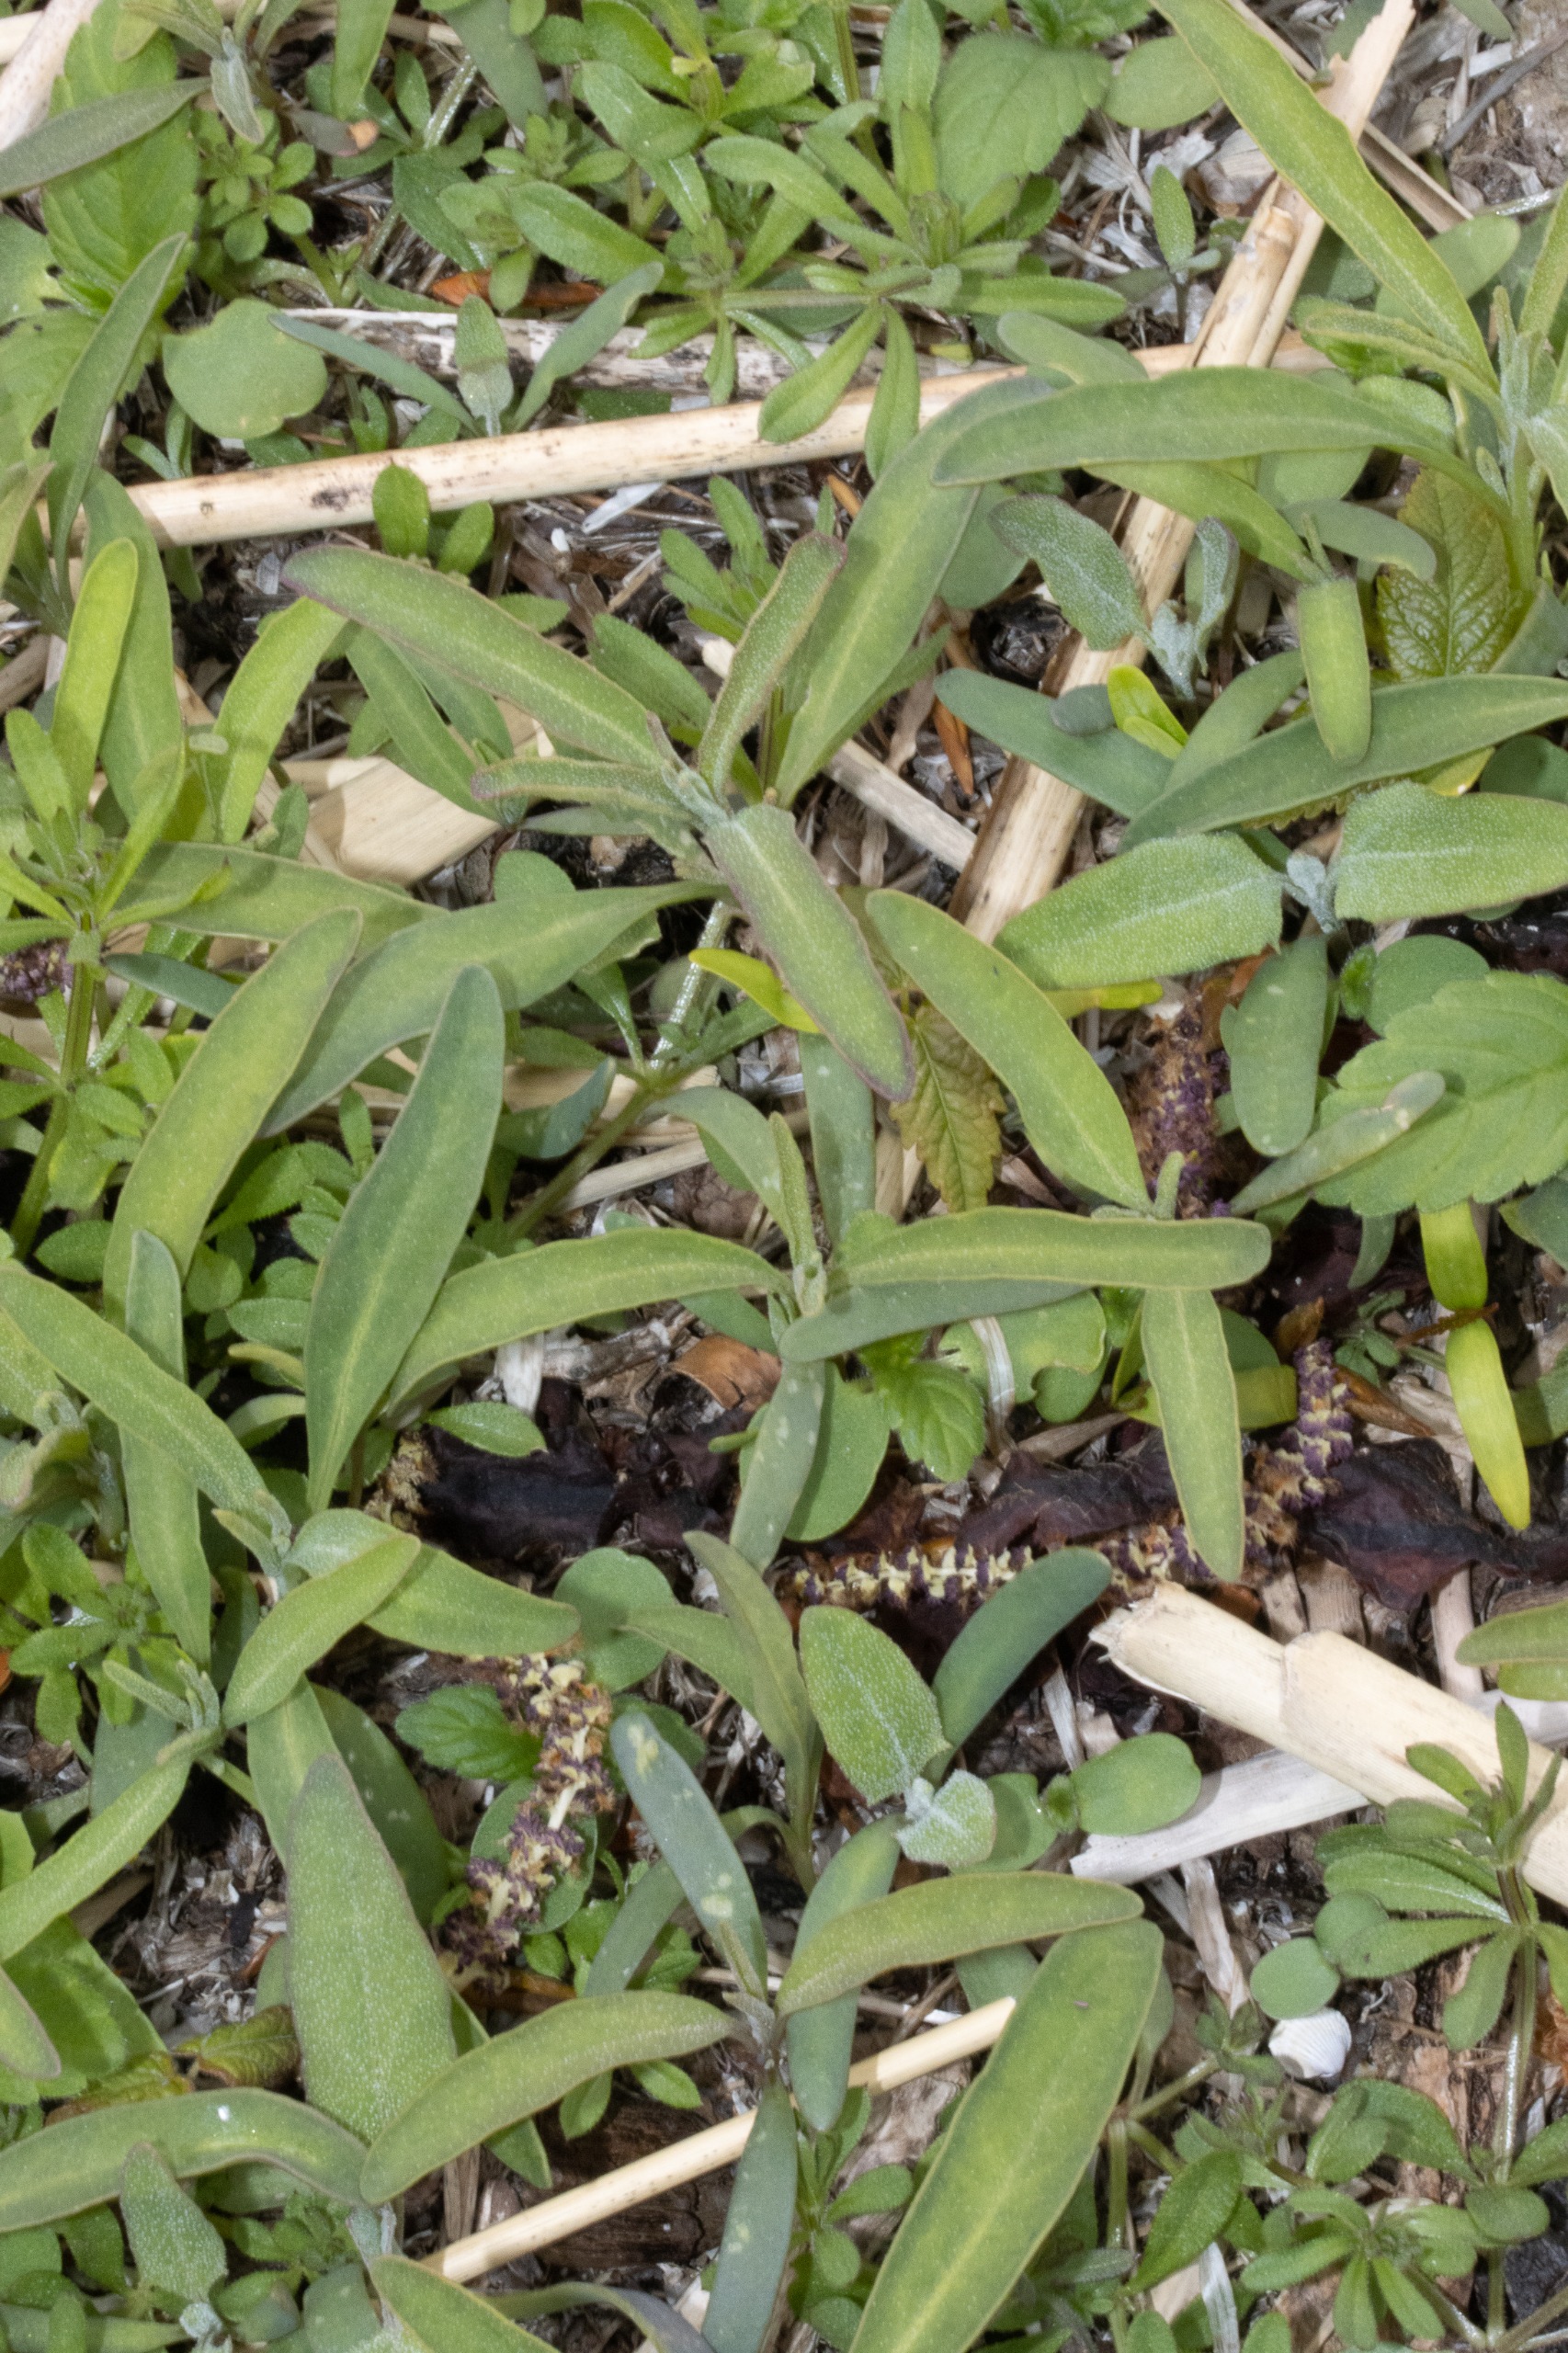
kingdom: Plantae
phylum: Tracheophyta
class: Magnoliopsida
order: Caryophyllales
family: Amaranthaceae
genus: Atriplex
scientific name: Atriplex littoralis
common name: Strand-mælde
